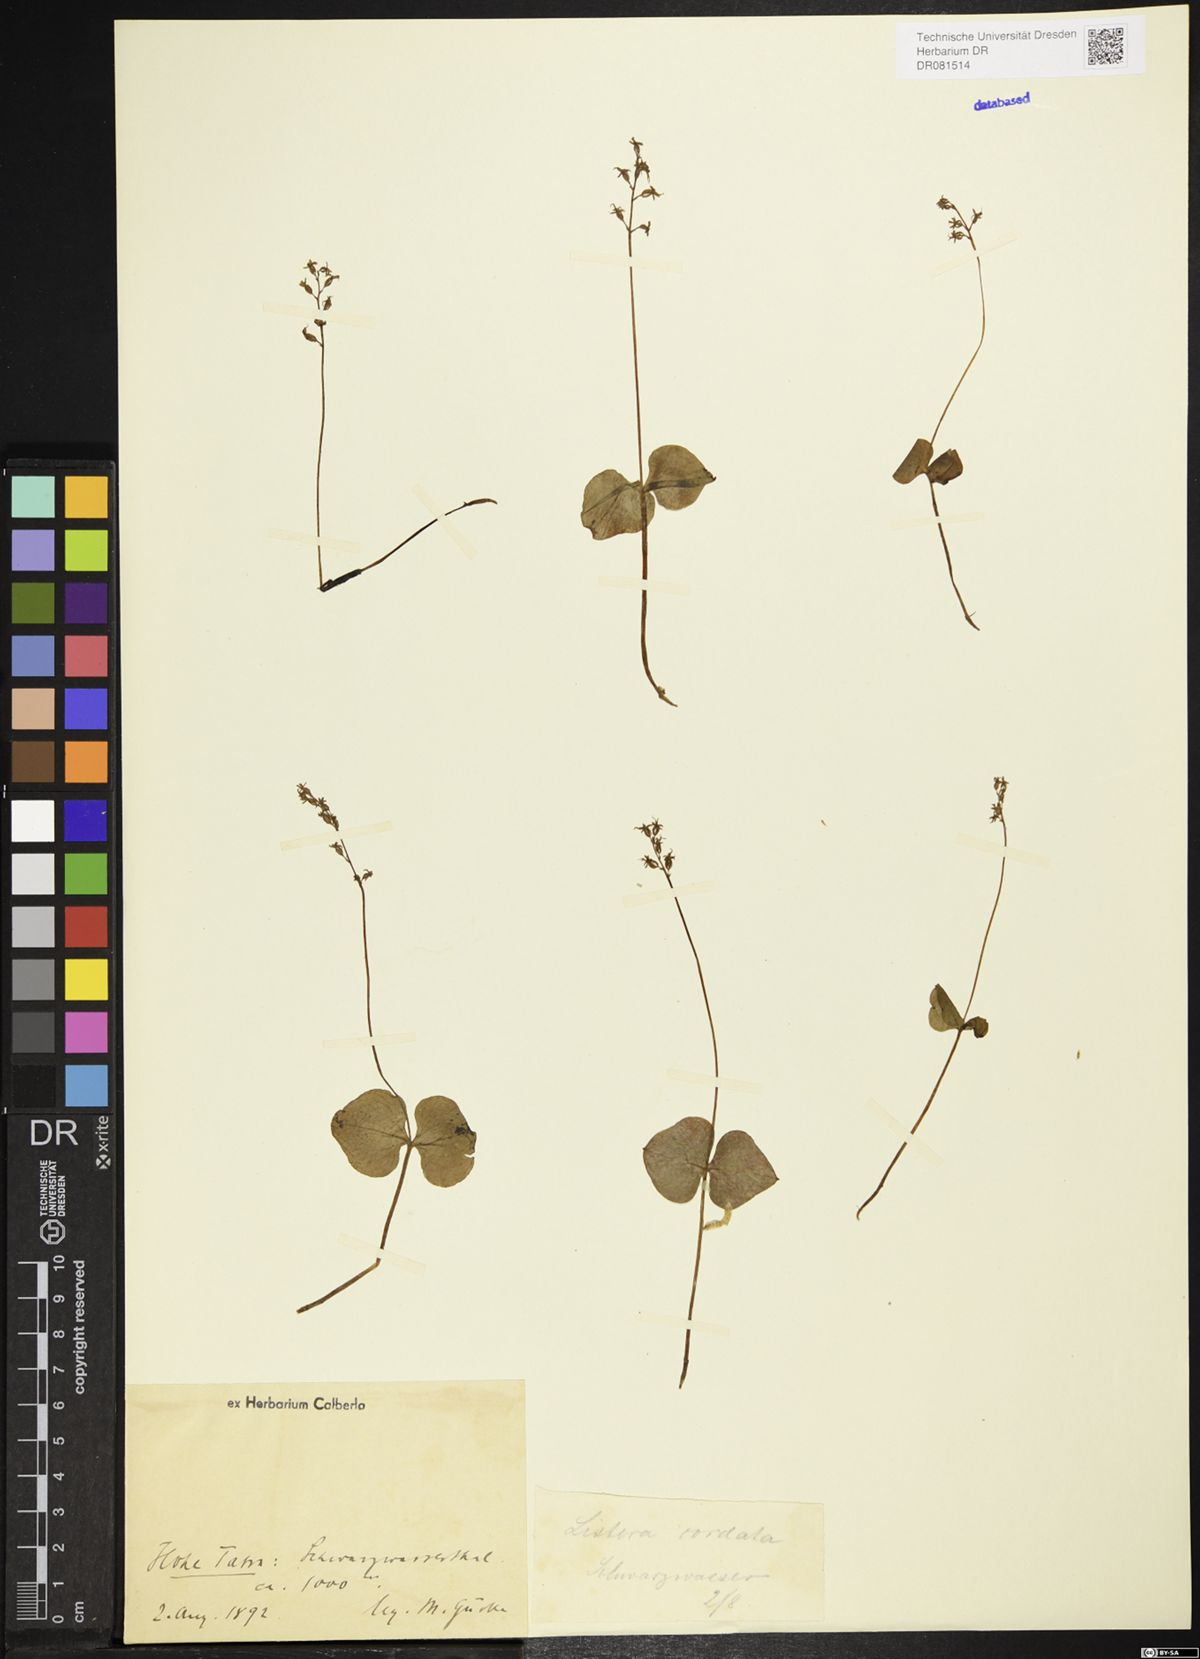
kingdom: Plantae
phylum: Tracheophyta
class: Liliopsida
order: Asparagales
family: Orchidaceae
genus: Neottia
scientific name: Neottia cordata
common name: Lesser twayblade
